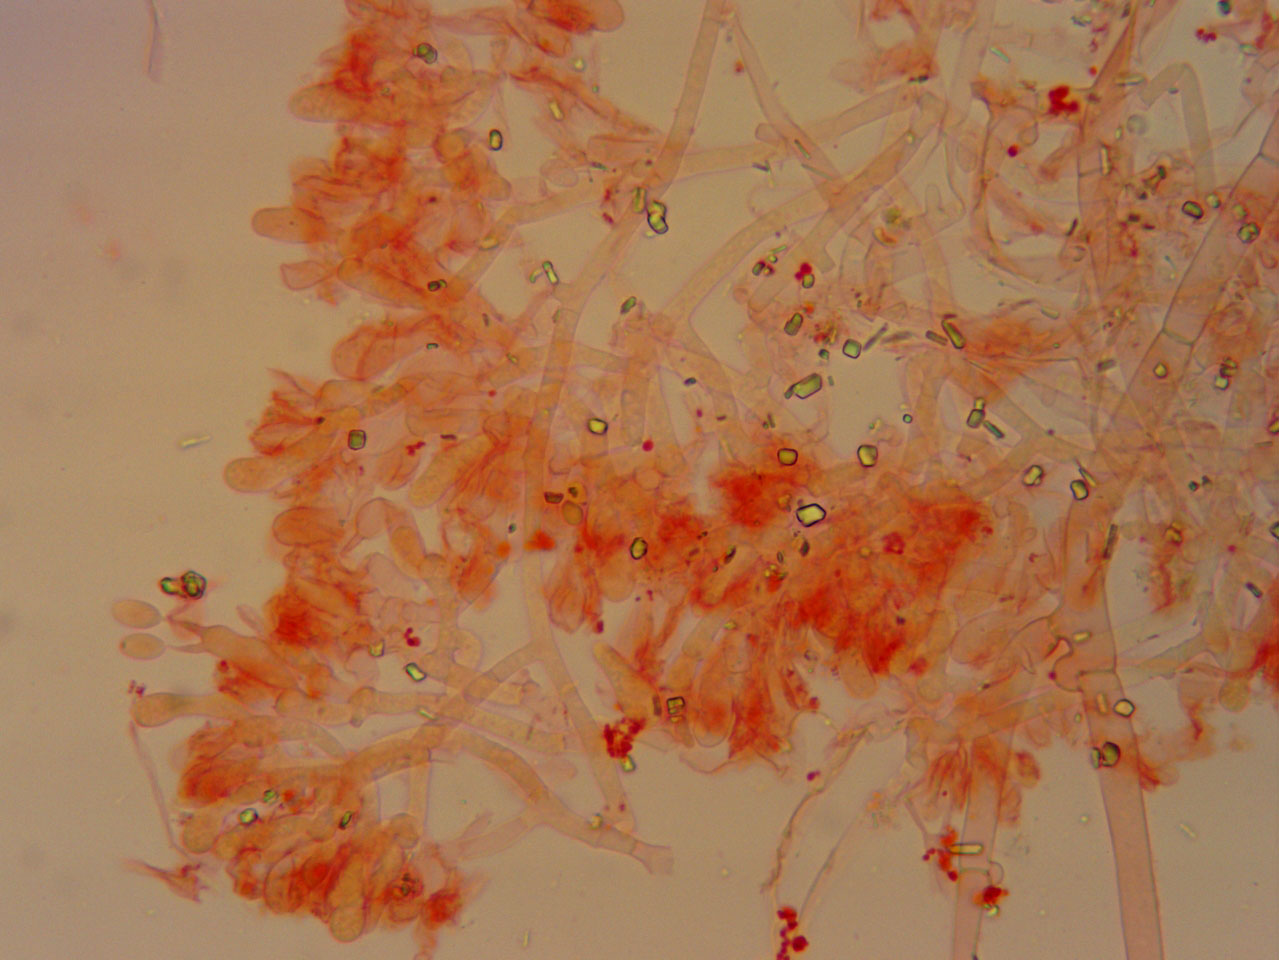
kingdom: Fungi
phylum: Basidiomycota
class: Agaricomycetes
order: Atheliales
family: Atheliaceae
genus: Athelia
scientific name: Athelia arachnoidea
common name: randet barkhinde
